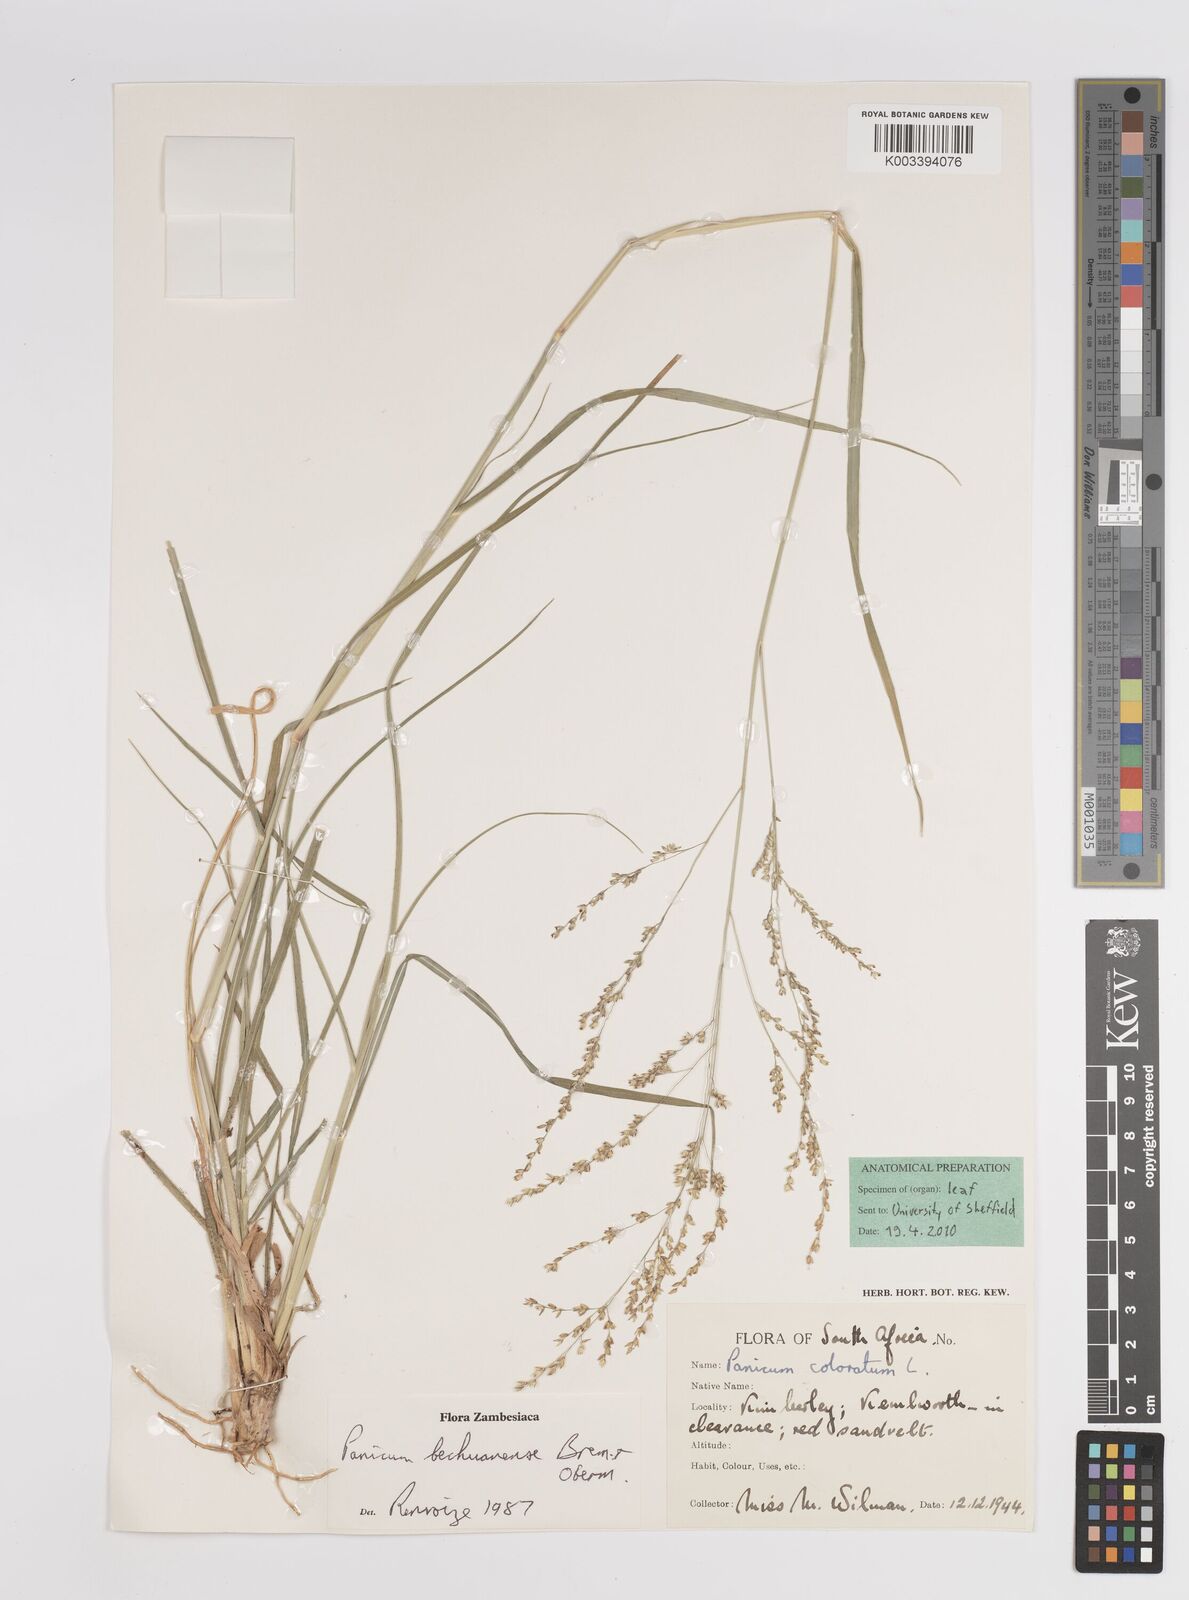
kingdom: Plantae
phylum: Tracheophyta
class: Liliopsida
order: Poales
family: Poaceae
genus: Panicum
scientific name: Panicum bechuanense
